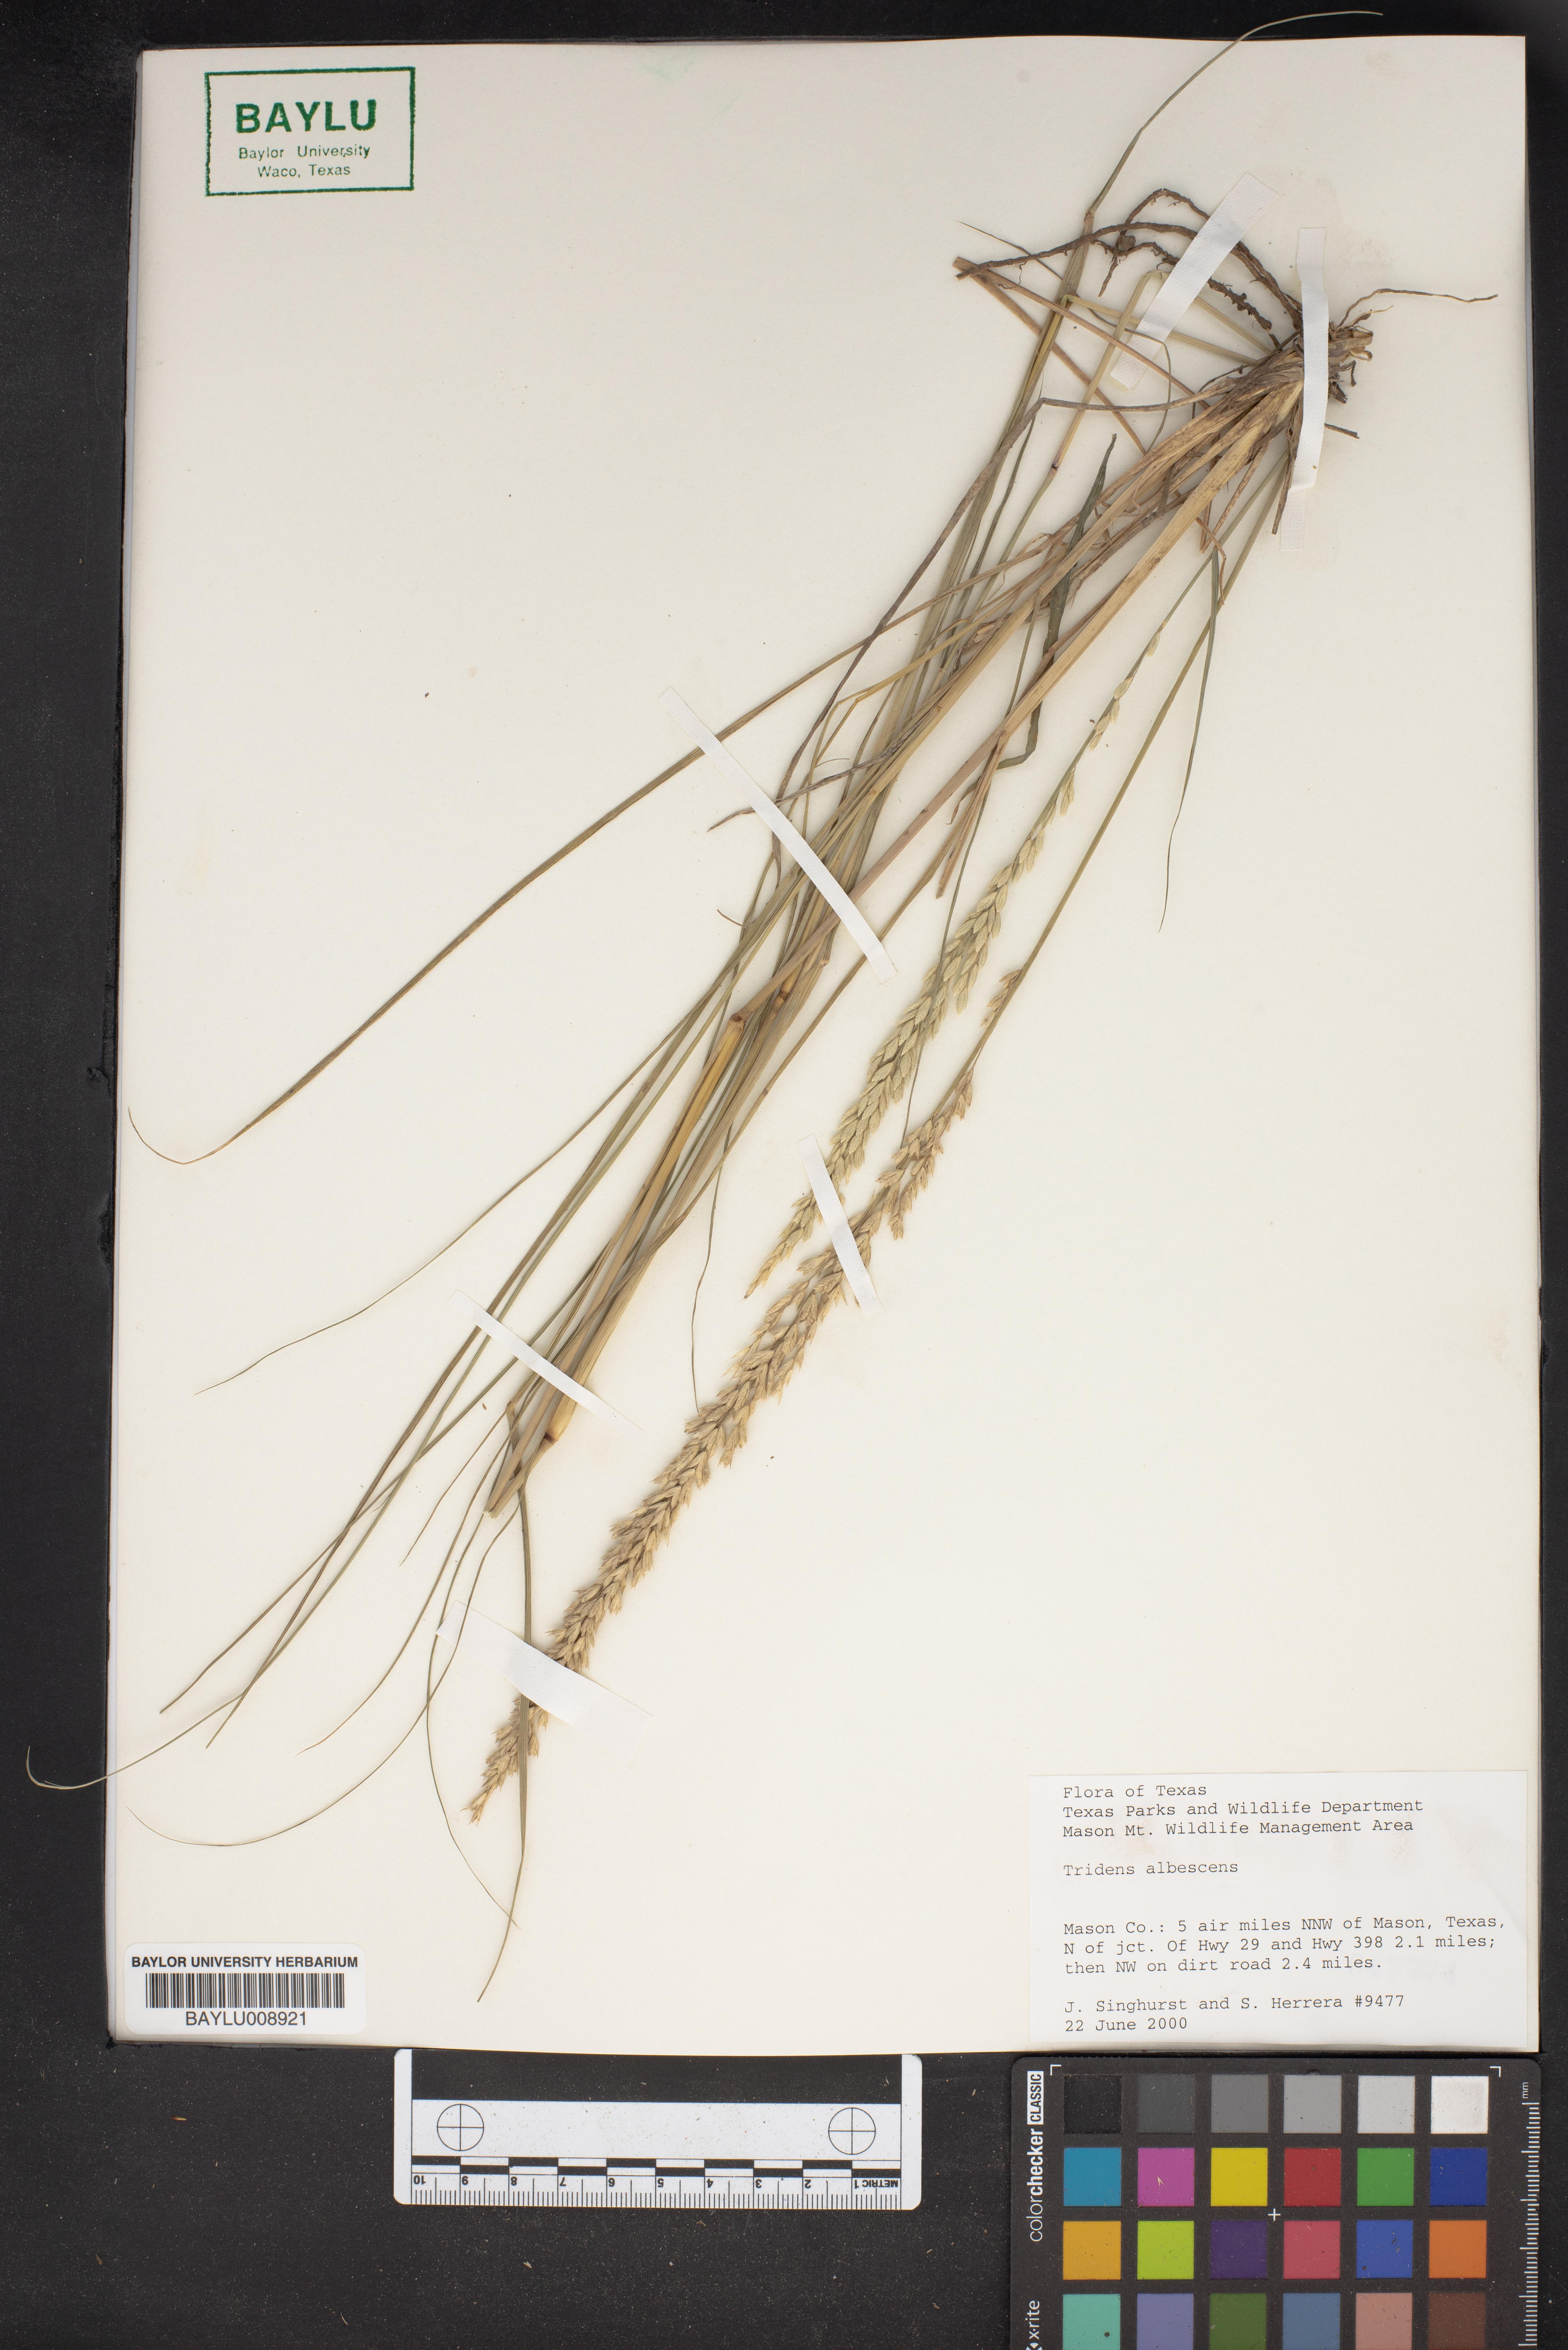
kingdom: Plantae
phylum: Tracheophyta
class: Liliopsida
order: Poales
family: Poaceae
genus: Tridens
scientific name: Tridens albescens
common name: White tridens
